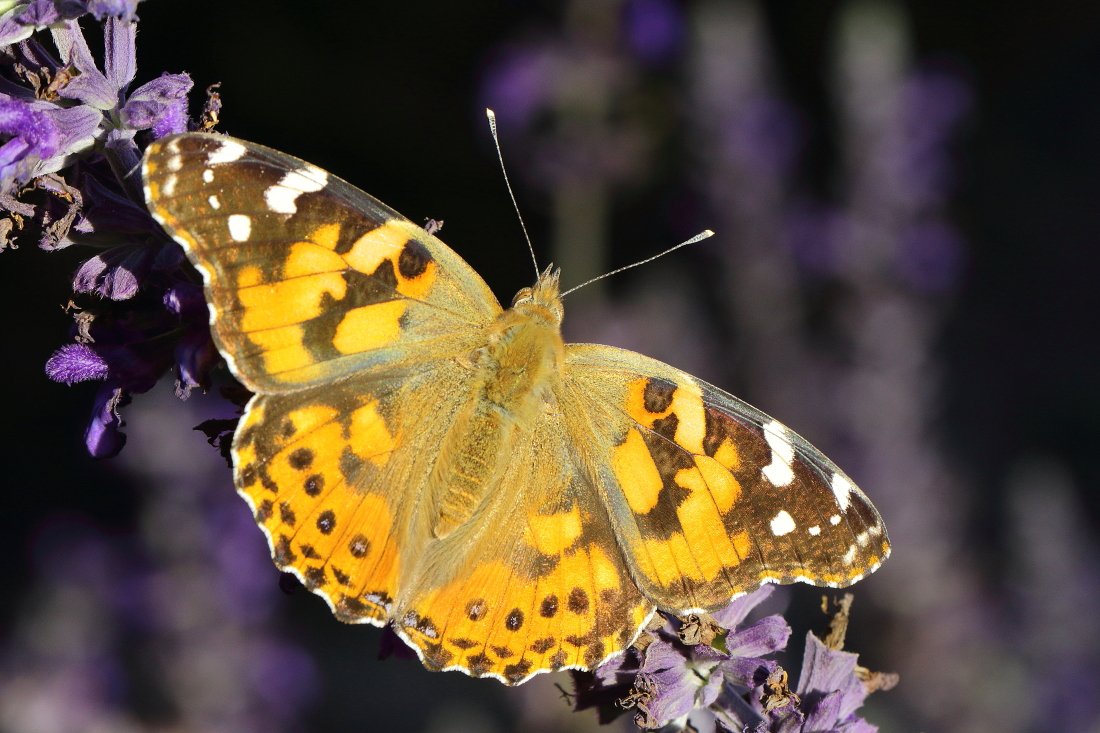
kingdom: Animalia
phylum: Arthropoda
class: Insecta
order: Lepidoptera
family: Nymphalidae
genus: Vanessa
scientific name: Vanessa cardui
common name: Painted Lady
